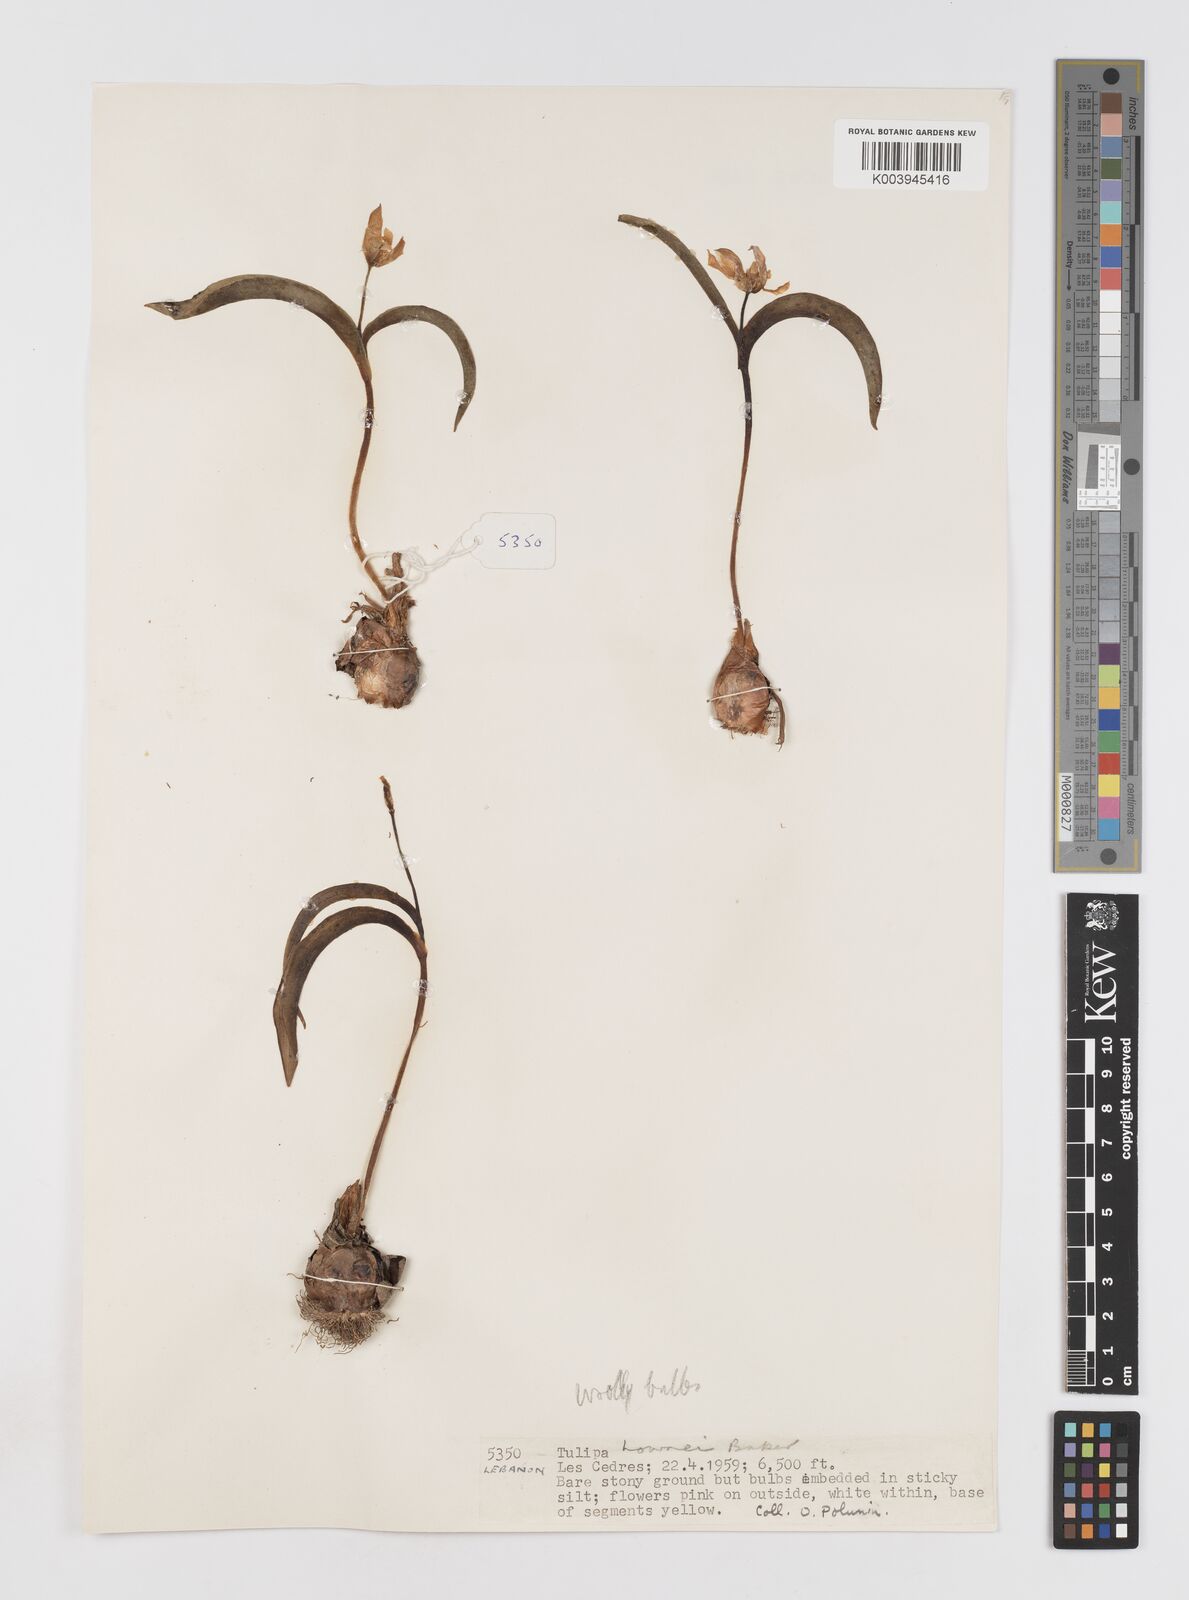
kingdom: Plantae
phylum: Tracheophyta
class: Liliopsida
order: Liliales
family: Liliaceae
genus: Tulipa
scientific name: Tulipa humilis
